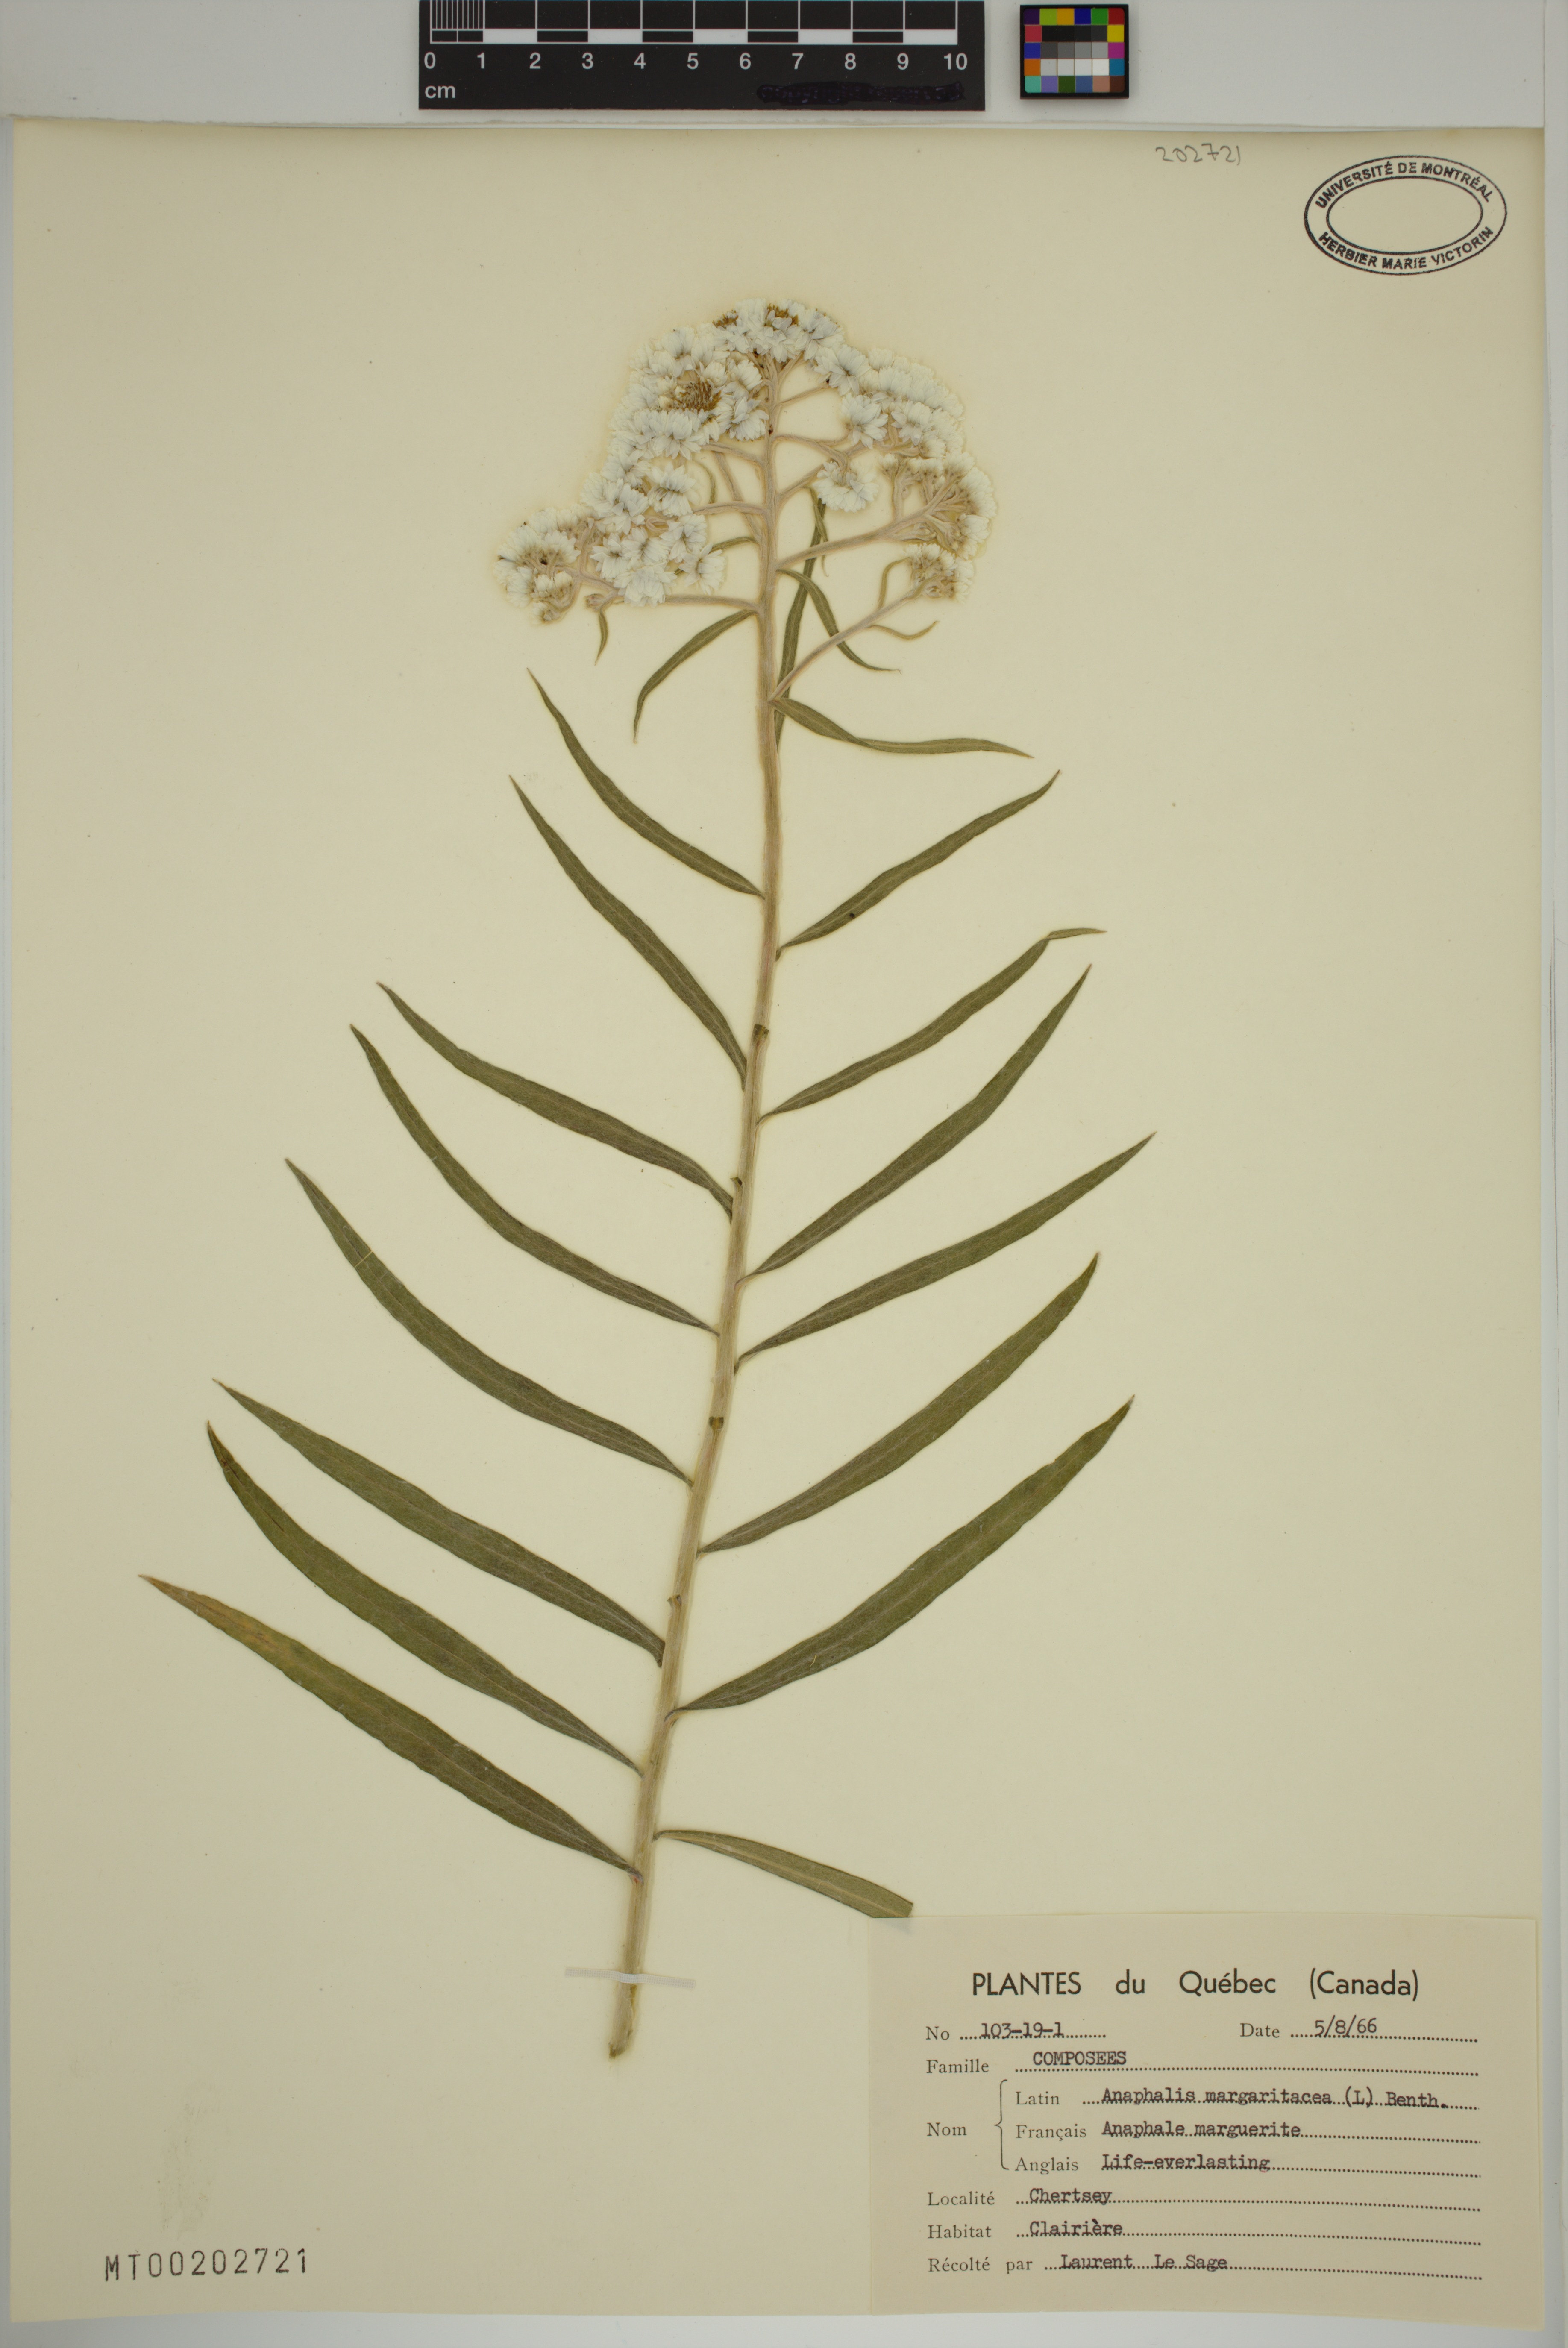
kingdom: Plantae
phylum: Tracheophyta
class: Magnoliopsida
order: Asterales
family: Asteraceae
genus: Anaphalis
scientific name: Anaphalis margaritacea
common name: Pearly everlasting
